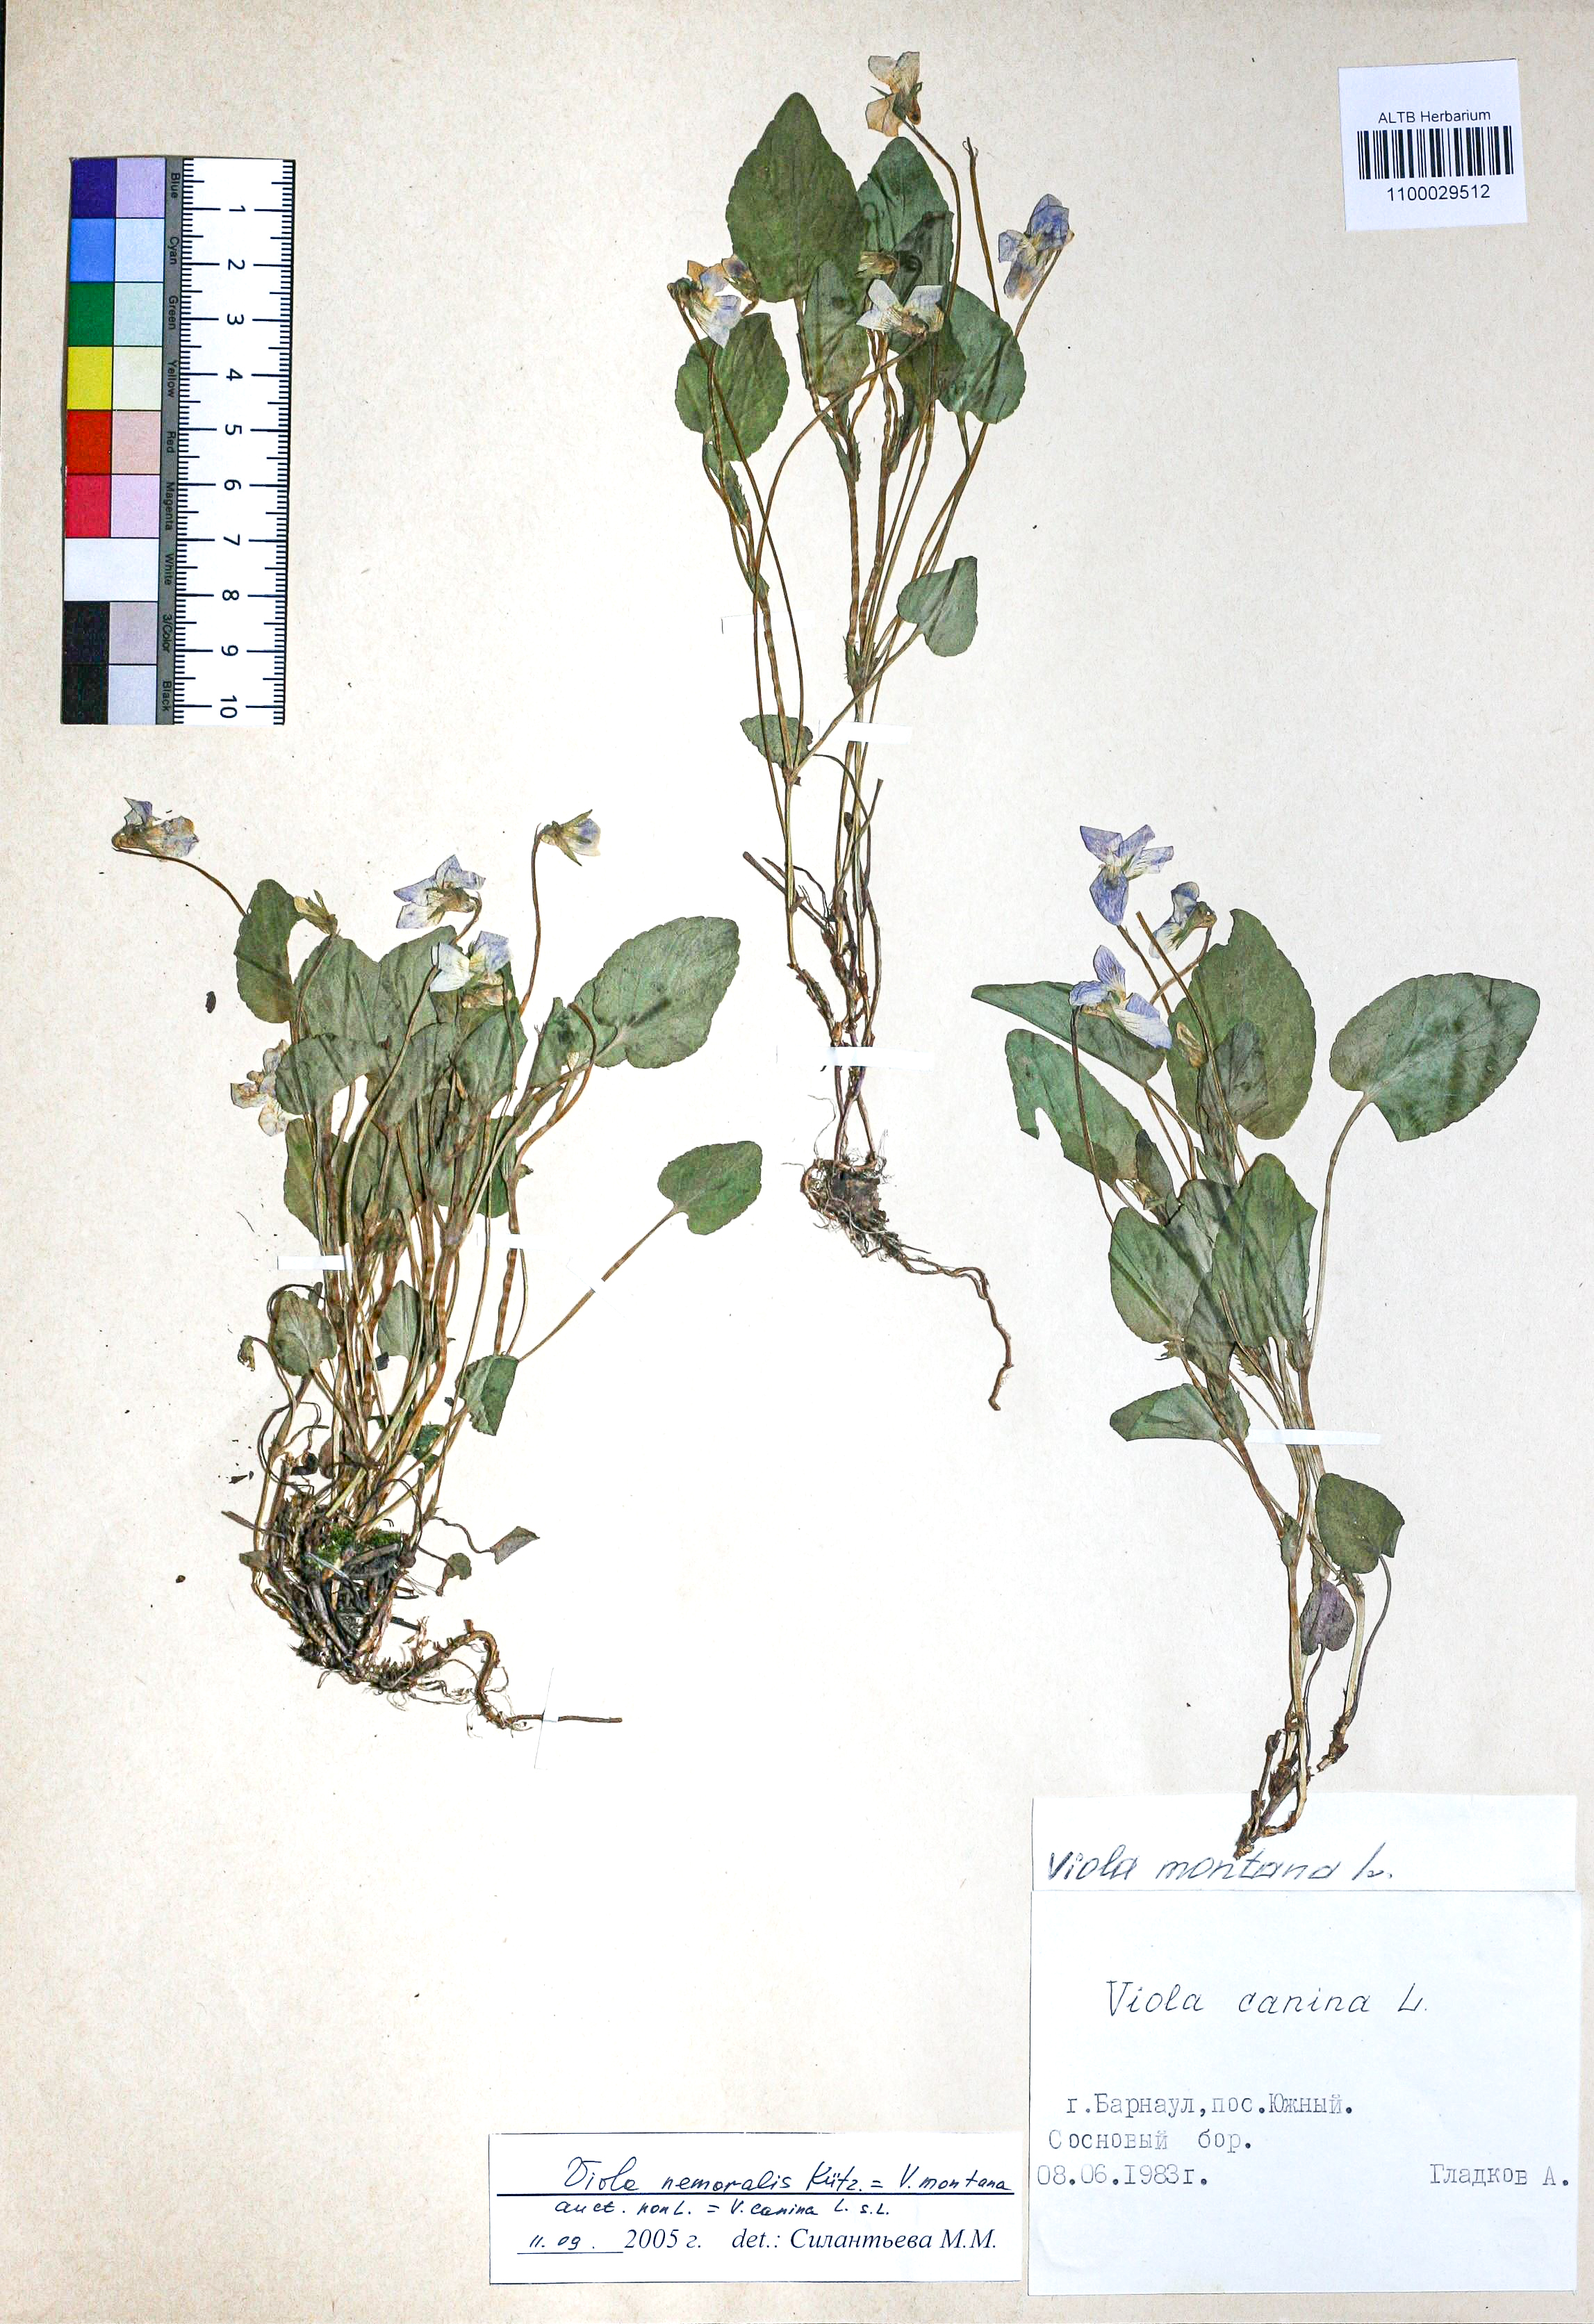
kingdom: Plantae
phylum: Tracheophyta
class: Magnoliopsida
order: Malpighiales
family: Violaceae
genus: Viola
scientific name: Viola ruppii
